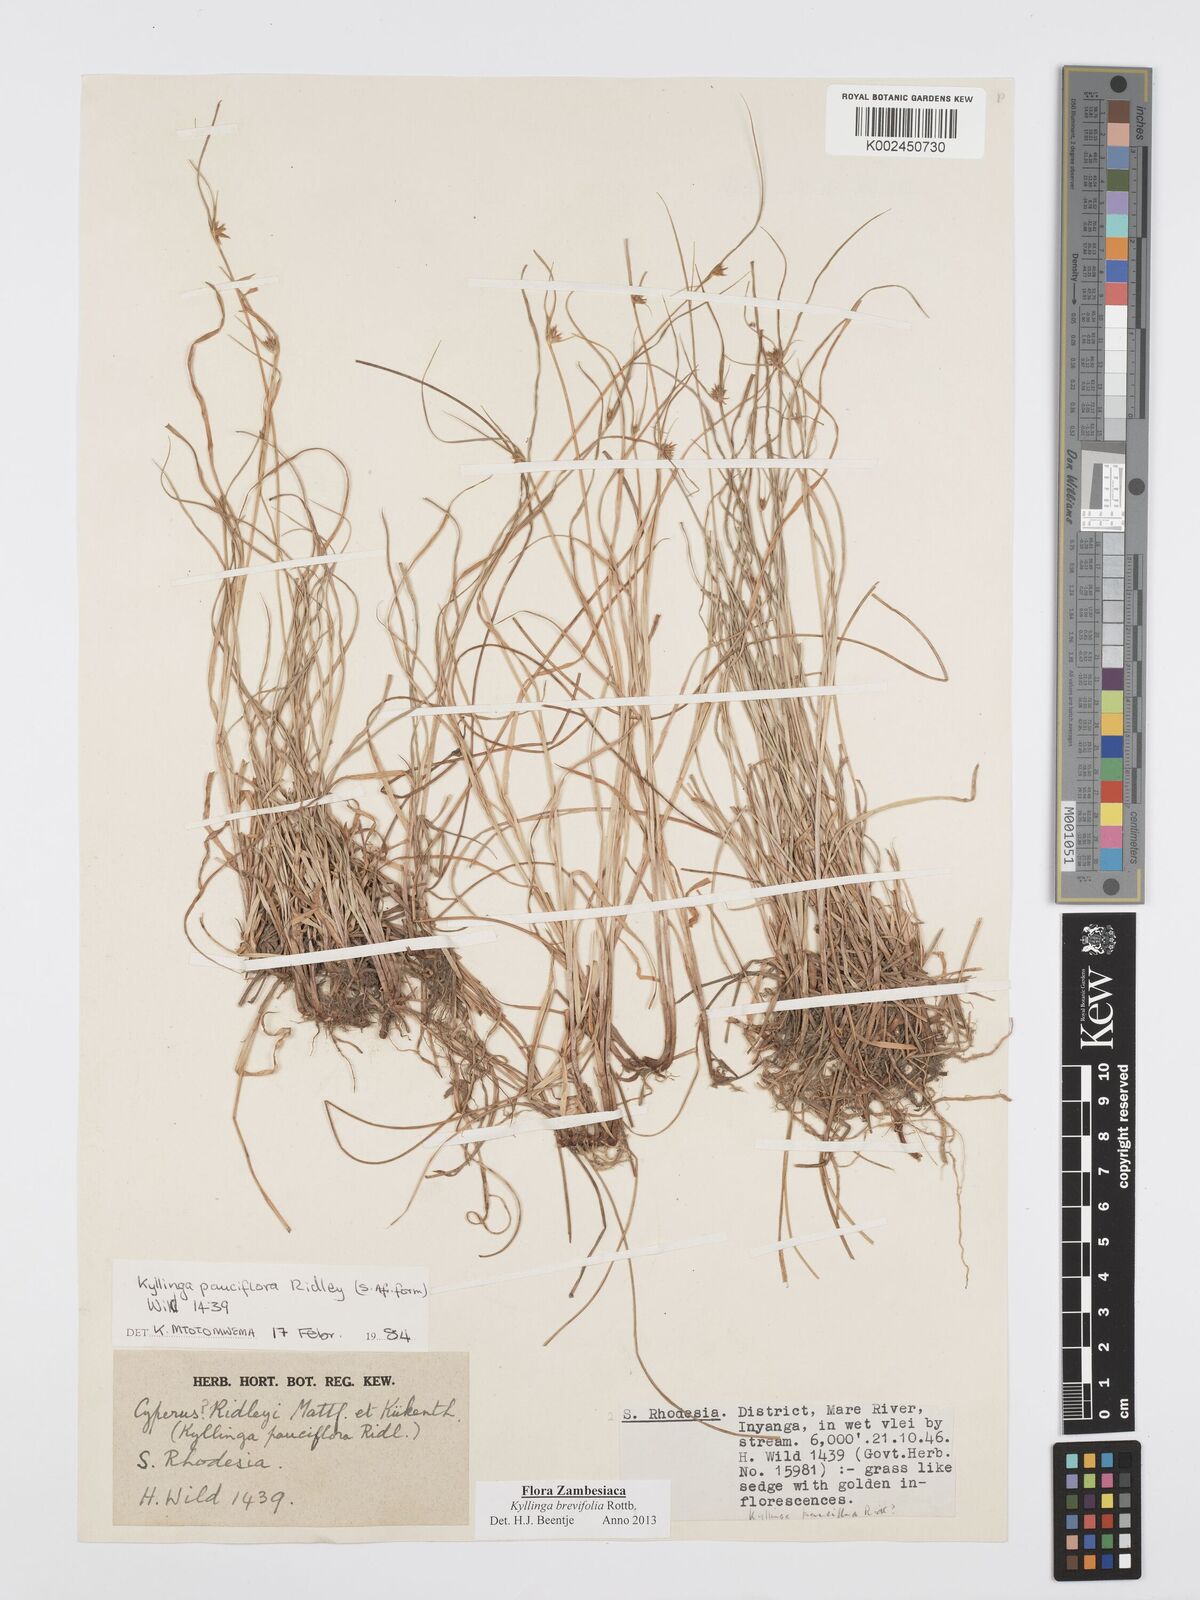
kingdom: Plantae
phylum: Tracheophyta
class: Liliopsida
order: Poales
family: Cyperaceae
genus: Cyperus
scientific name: Cyperus brevifolius
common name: Globe kyllinga
